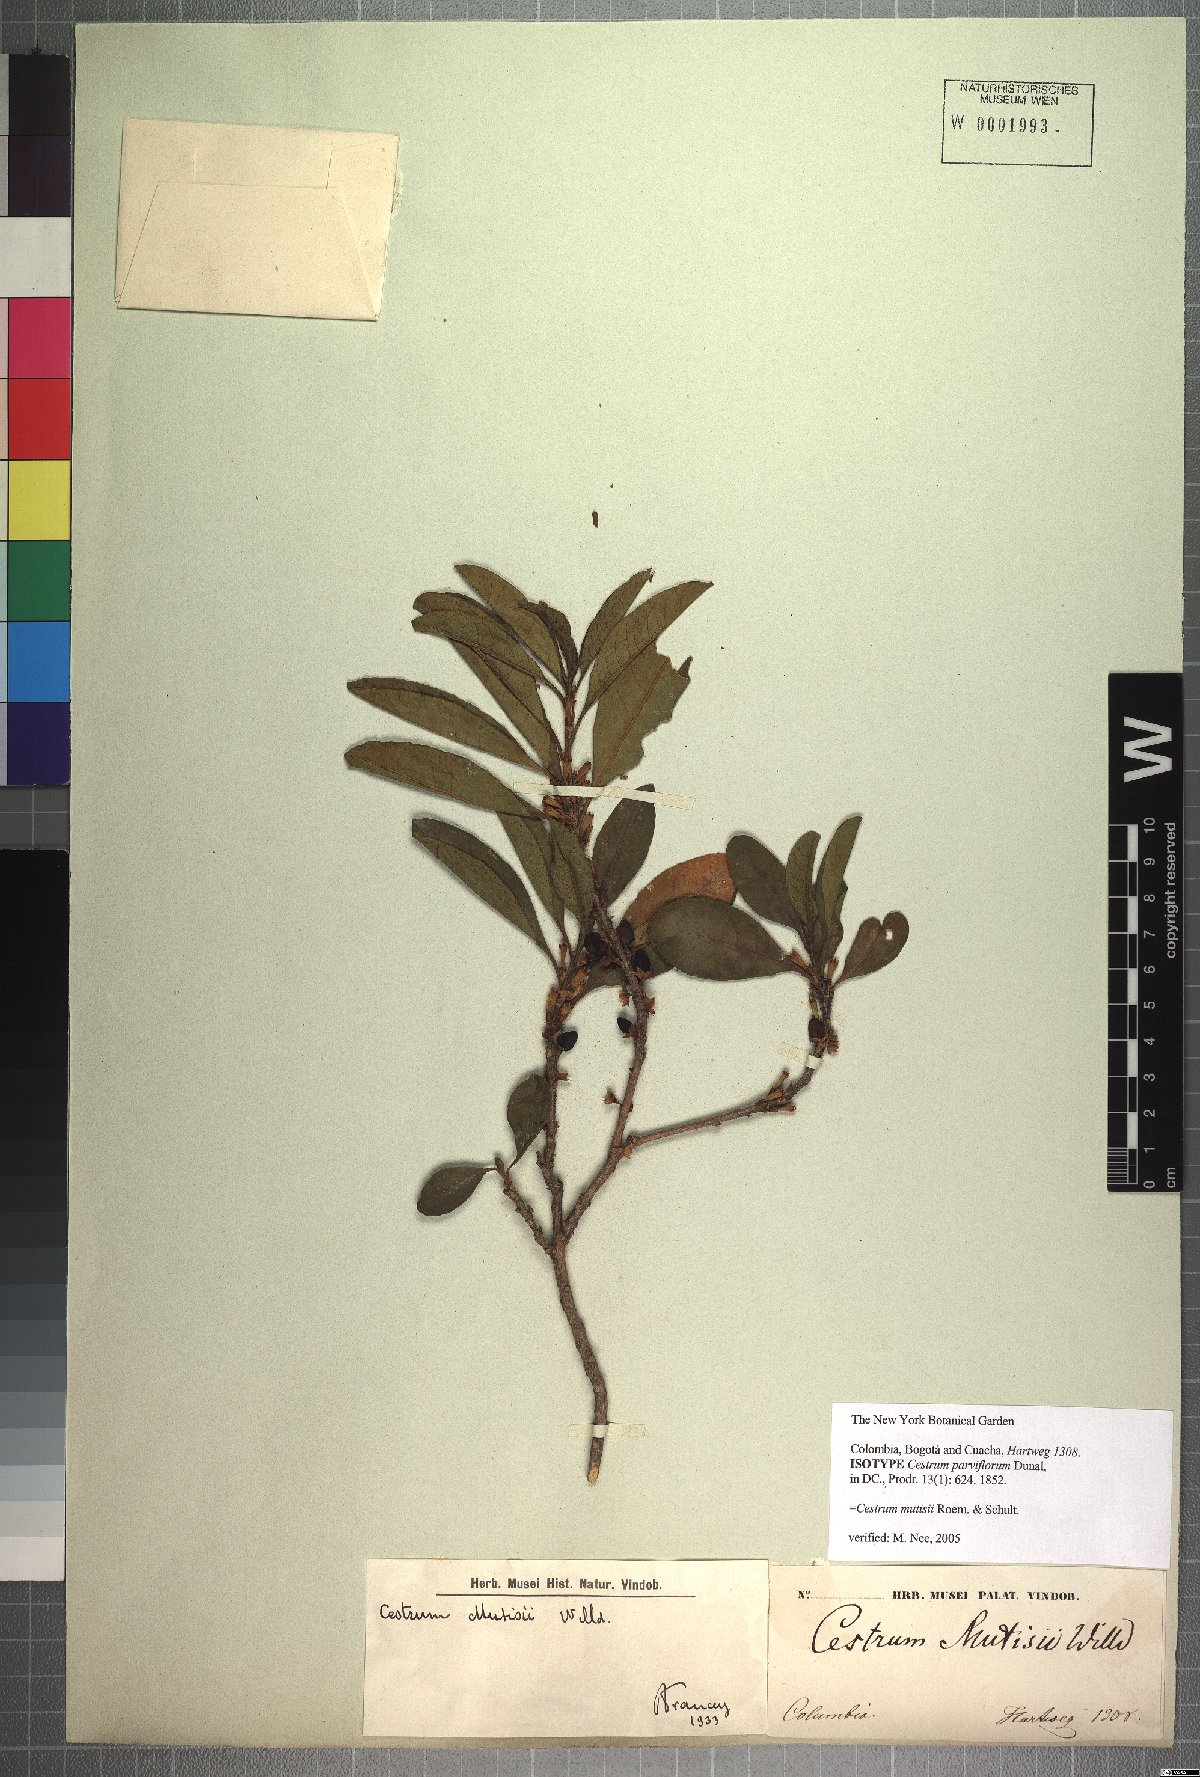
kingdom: Plantae
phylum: Tracheophyta
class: Magnoliopsida
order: Solanales
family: Solanaceae
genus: Cestrum
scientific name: Cestrum mutisii
